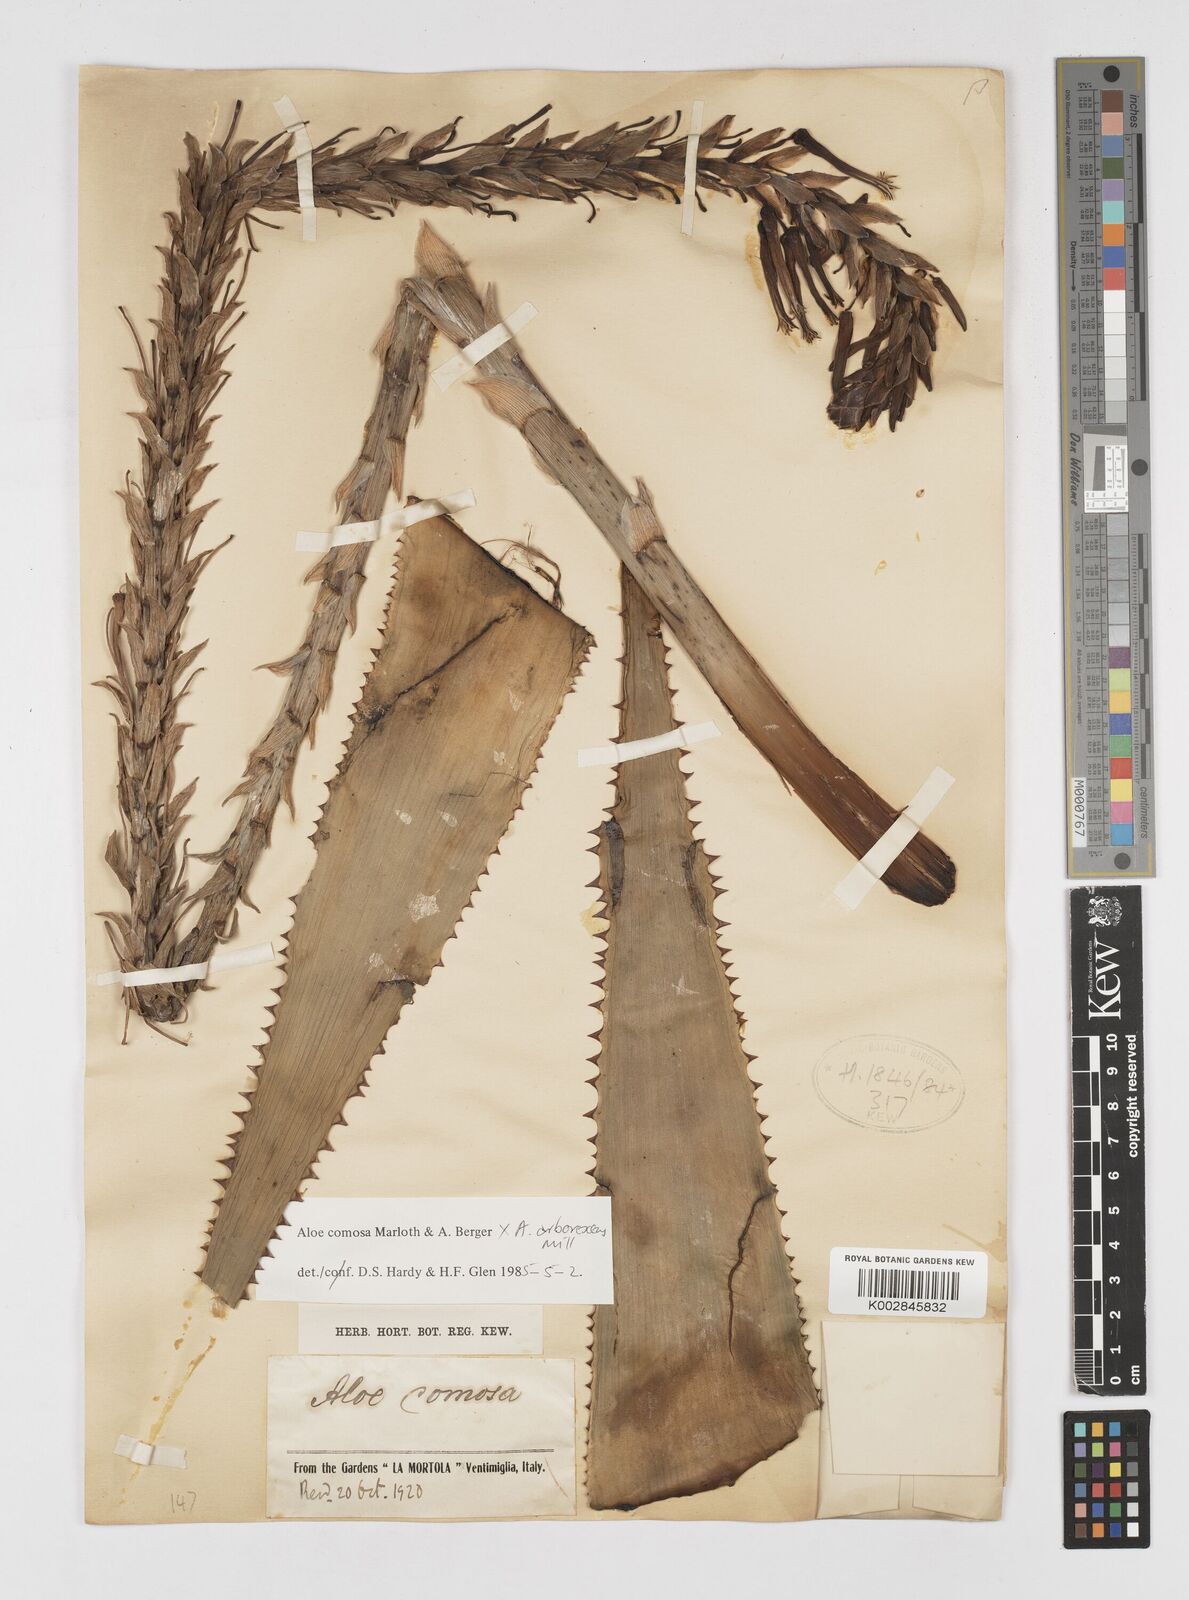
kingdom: Plantae
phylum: Tracheophyta
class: Liliopsida
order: Asparagales
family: Asphodelaceae
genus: Aloe
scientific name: Aloe comosa
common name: Clanwilliam aloe
